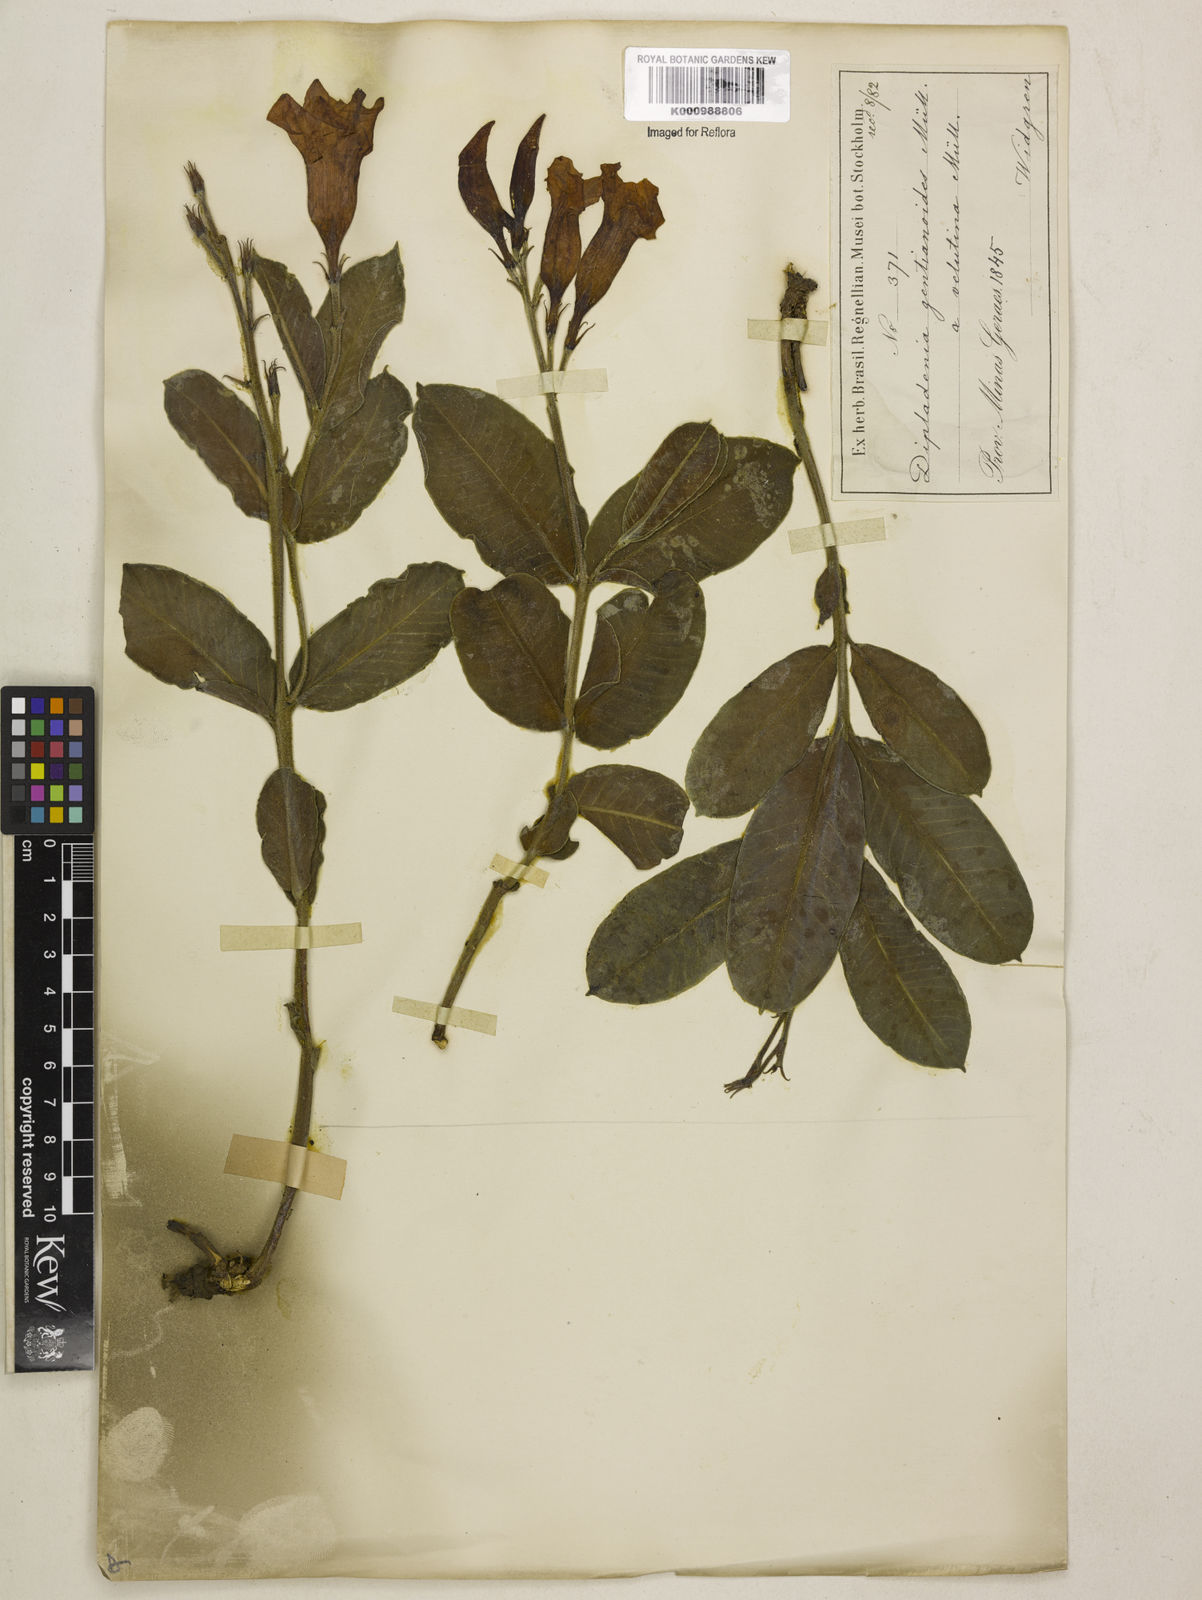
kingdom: Plantae
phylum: Tracheophyta
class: Magnoliopsida
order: Gentianales
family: Apocynaceae
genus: Mandevilla
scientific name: Mandevilla pohliana
